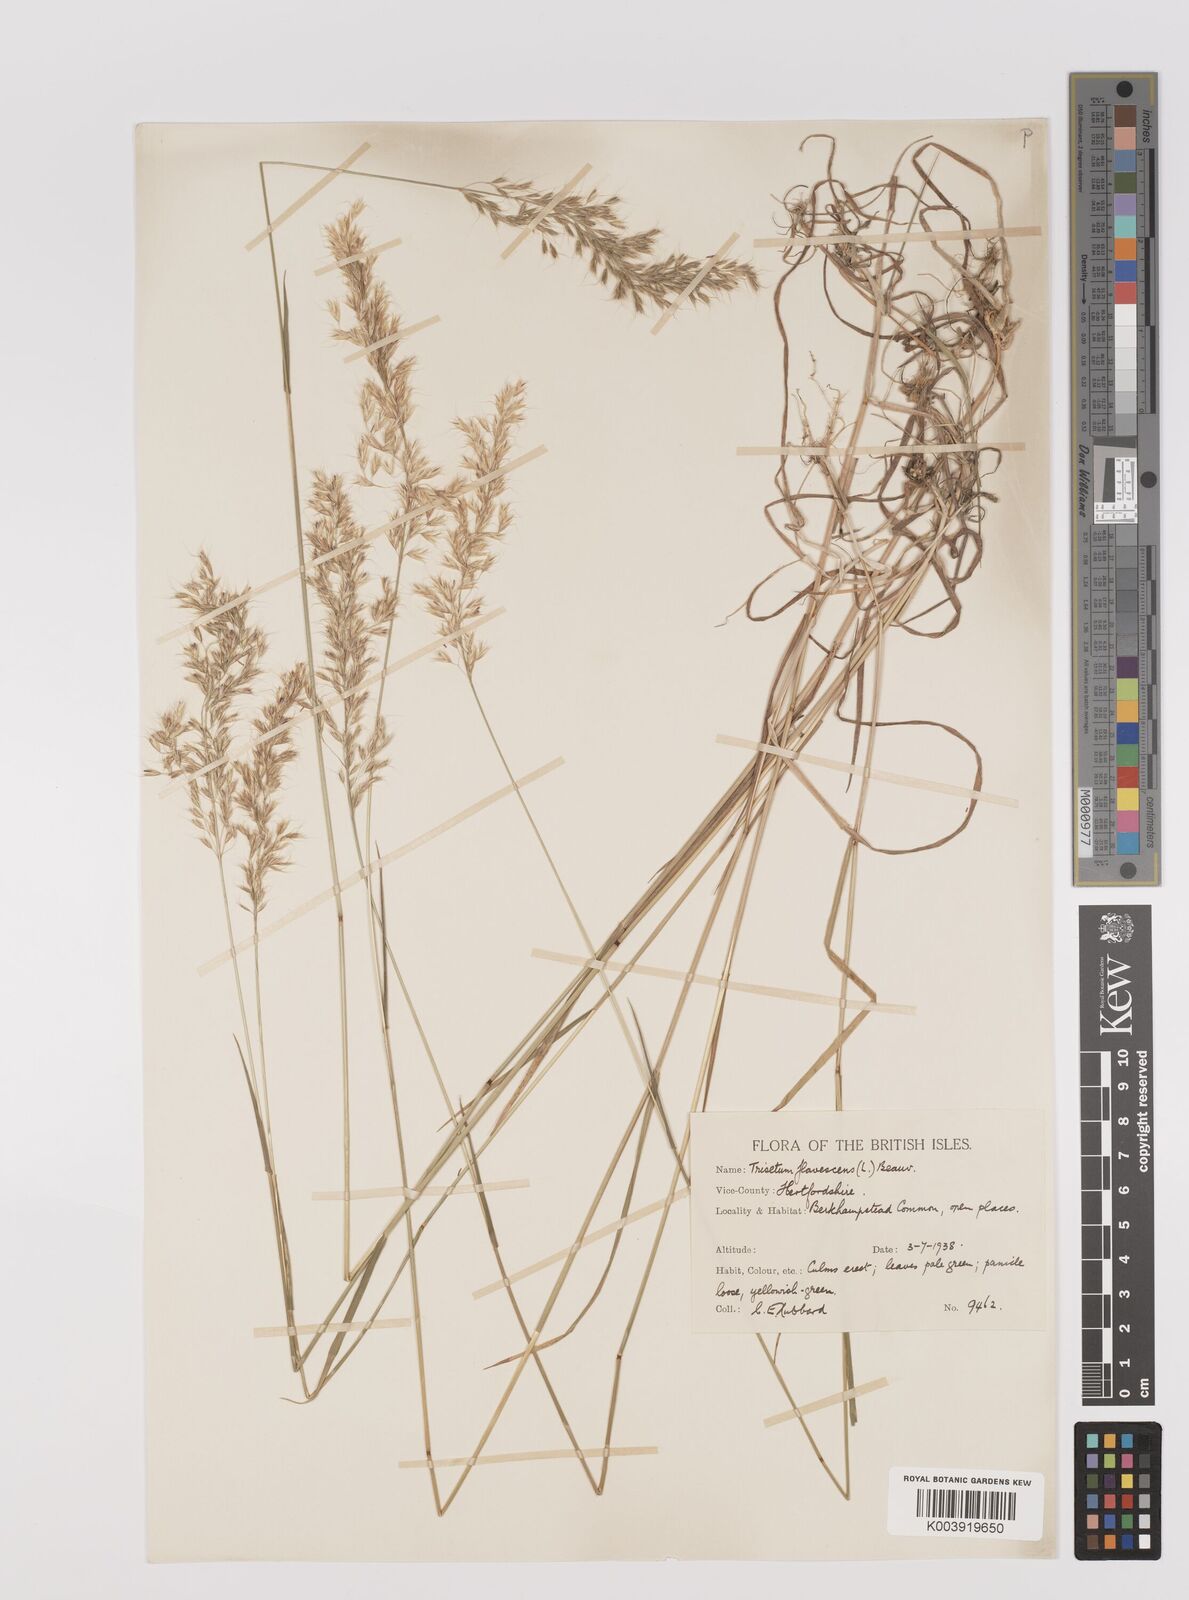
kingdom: Plantae
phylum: Tracheophyta
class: Liliopsida
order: Poales
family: Poaceae
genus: Trisetum
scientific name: Trisetum flavescens
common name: Yellow oat-grass
